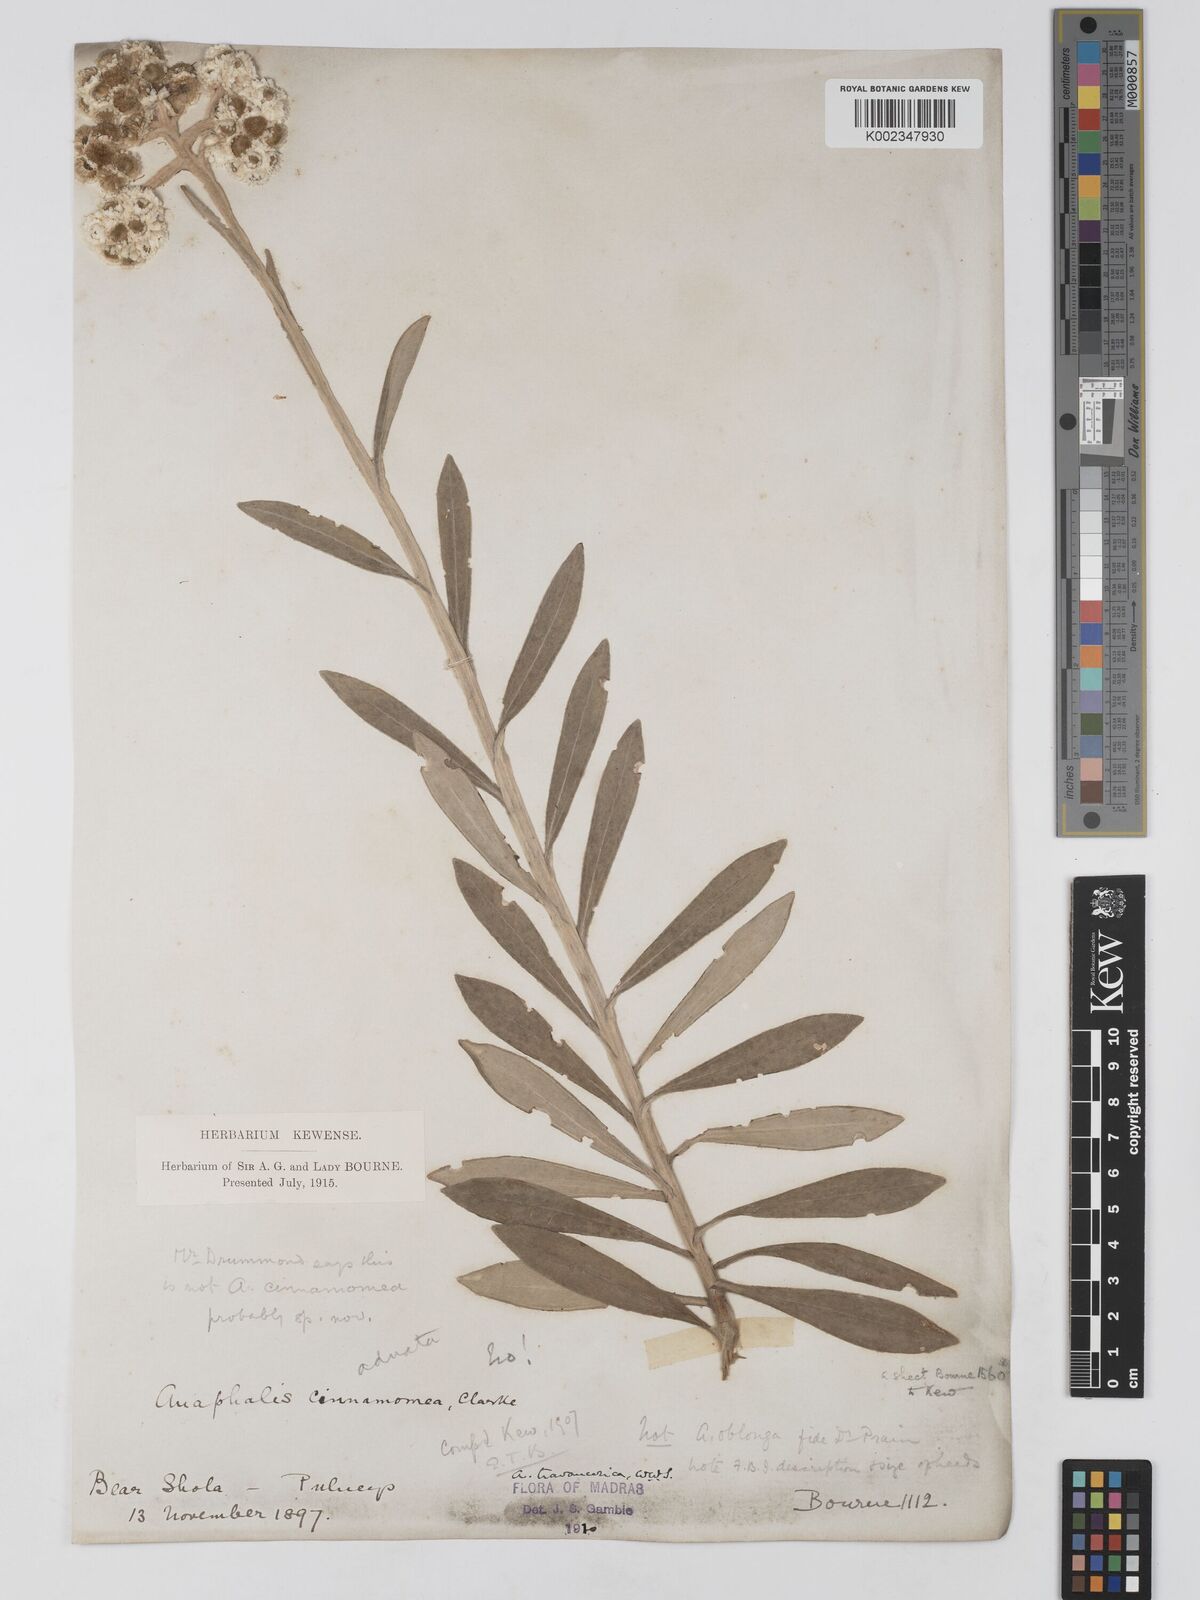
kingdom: Plantae
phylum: Tracheophyta
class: Magnoliopsida
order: Asterales
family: Asteraceae
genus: Anaphalis
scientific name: Anaphalis travancorica
